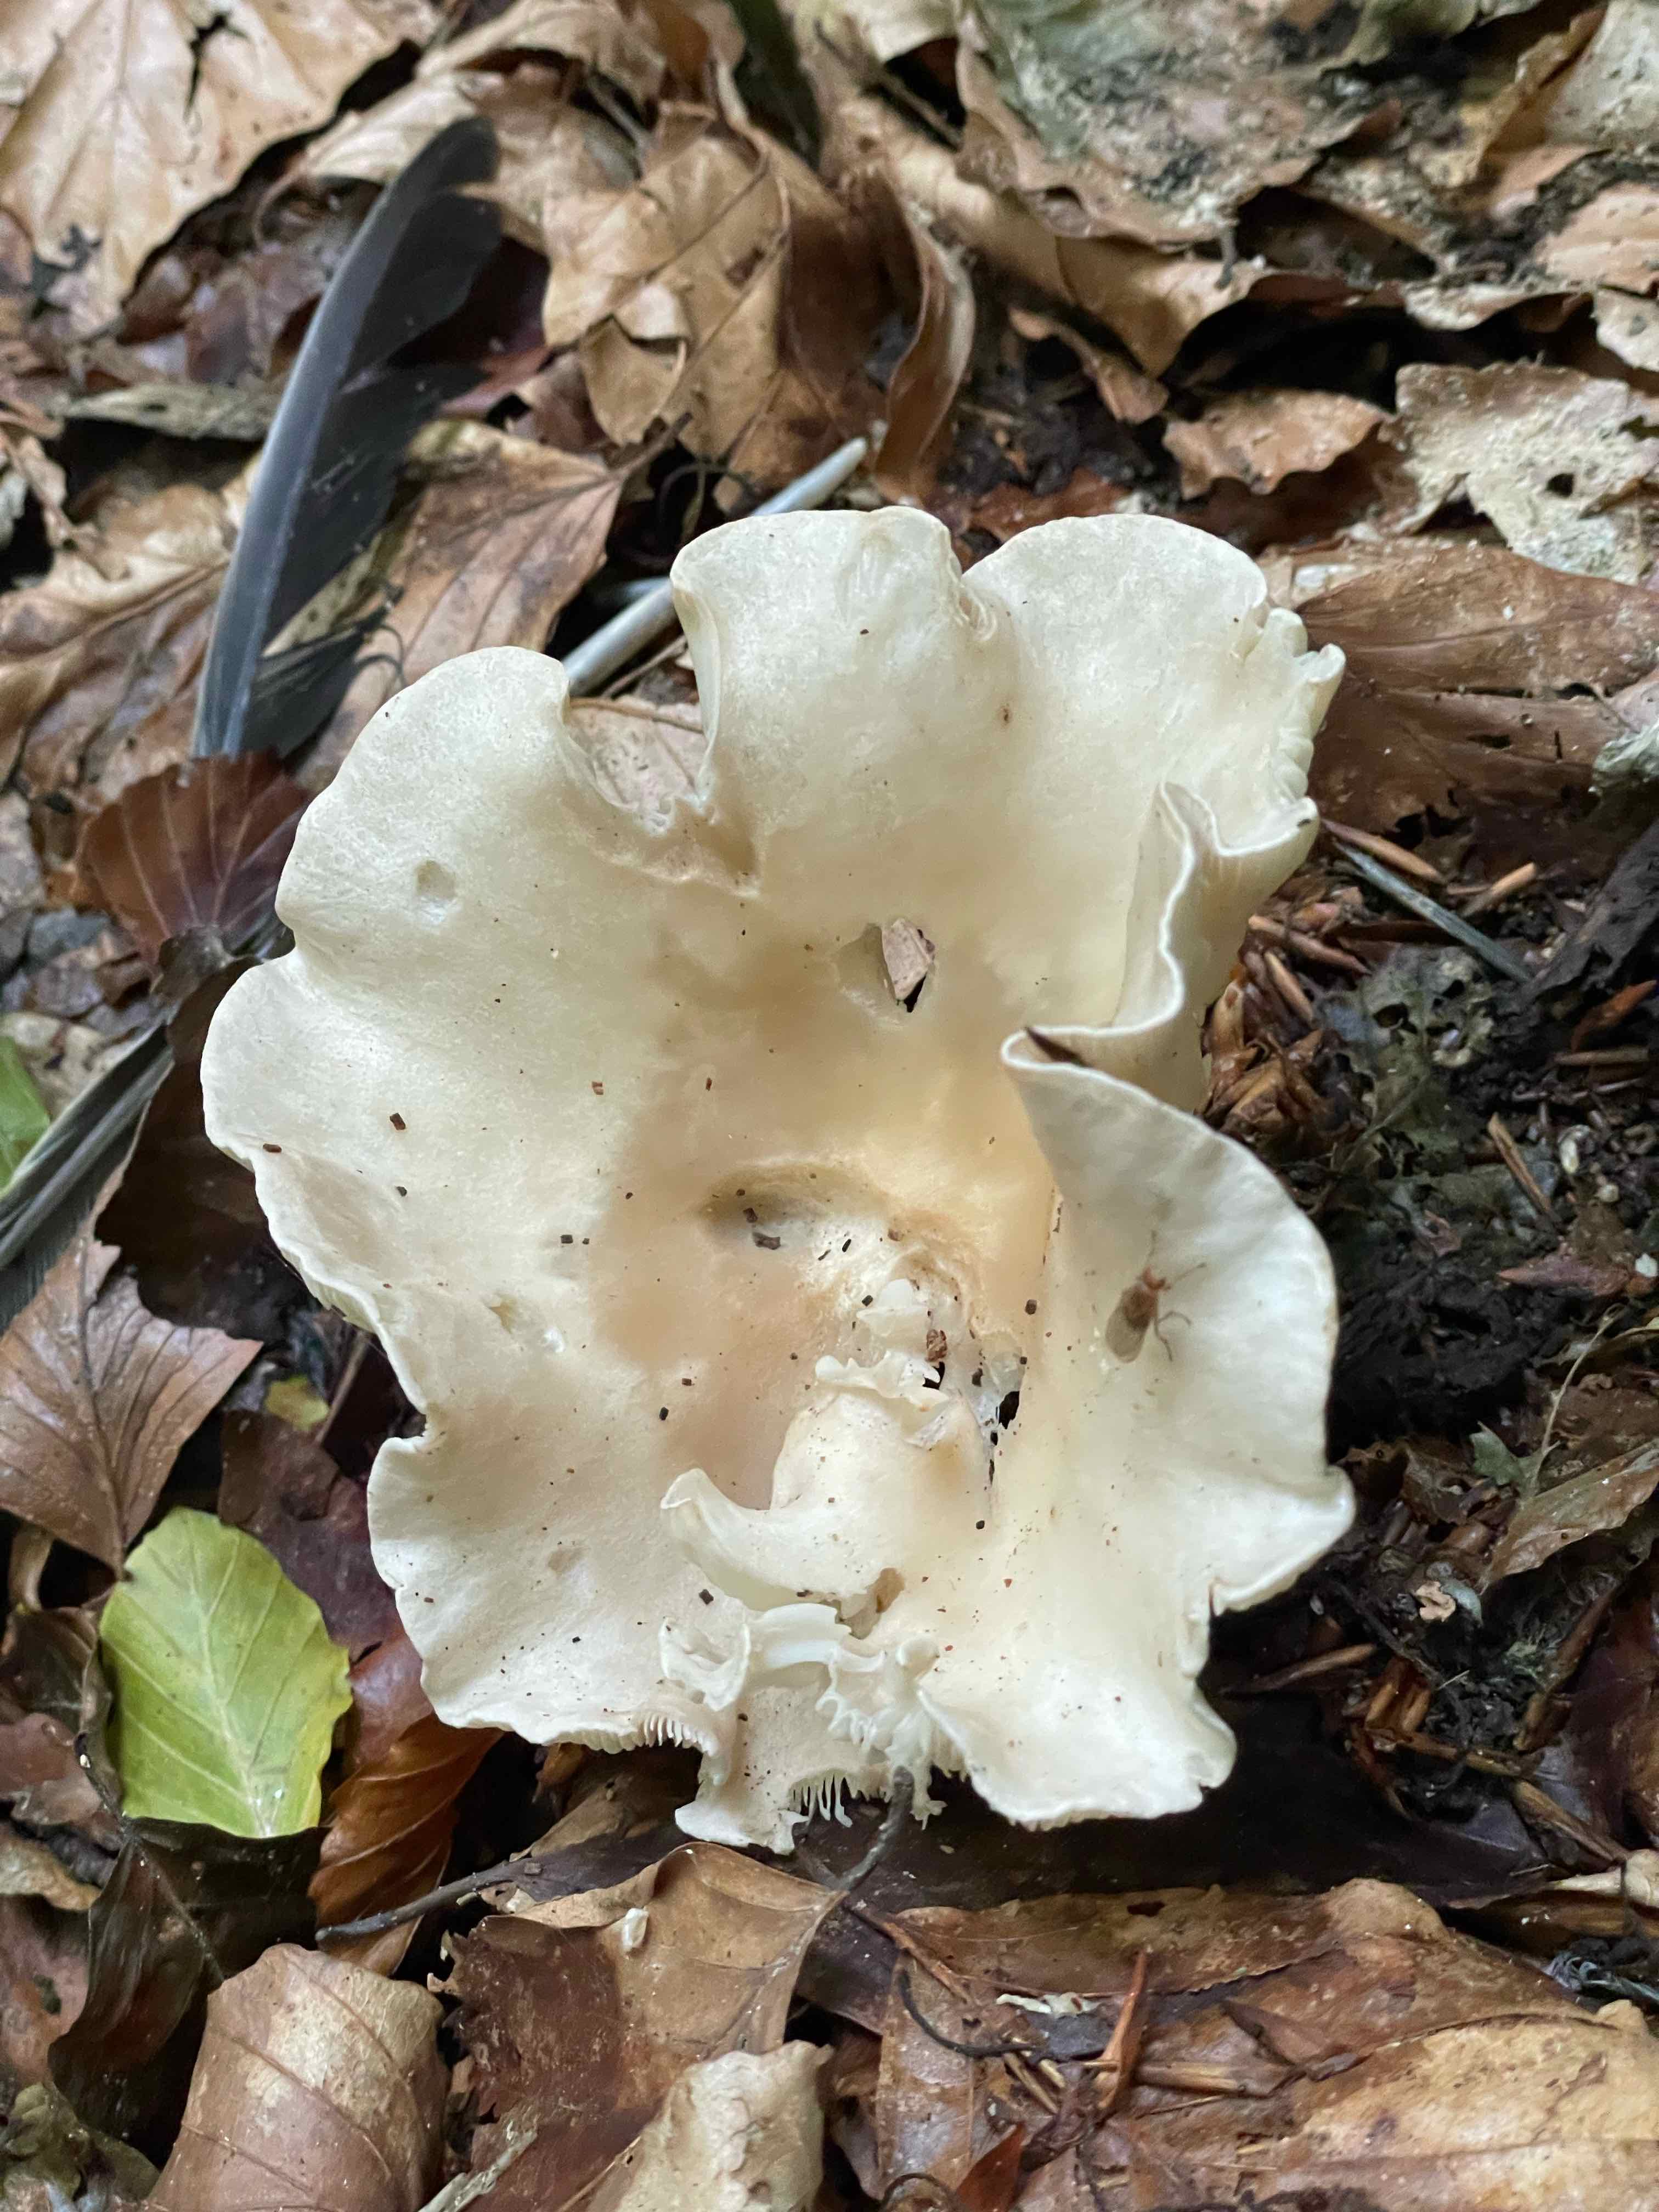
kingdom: Fungi
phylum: Basidiomycota
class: Agaricomycetes
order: Agaricales
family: Tricholomataceae
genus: Clitocybe
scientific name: Clitocybe odora
